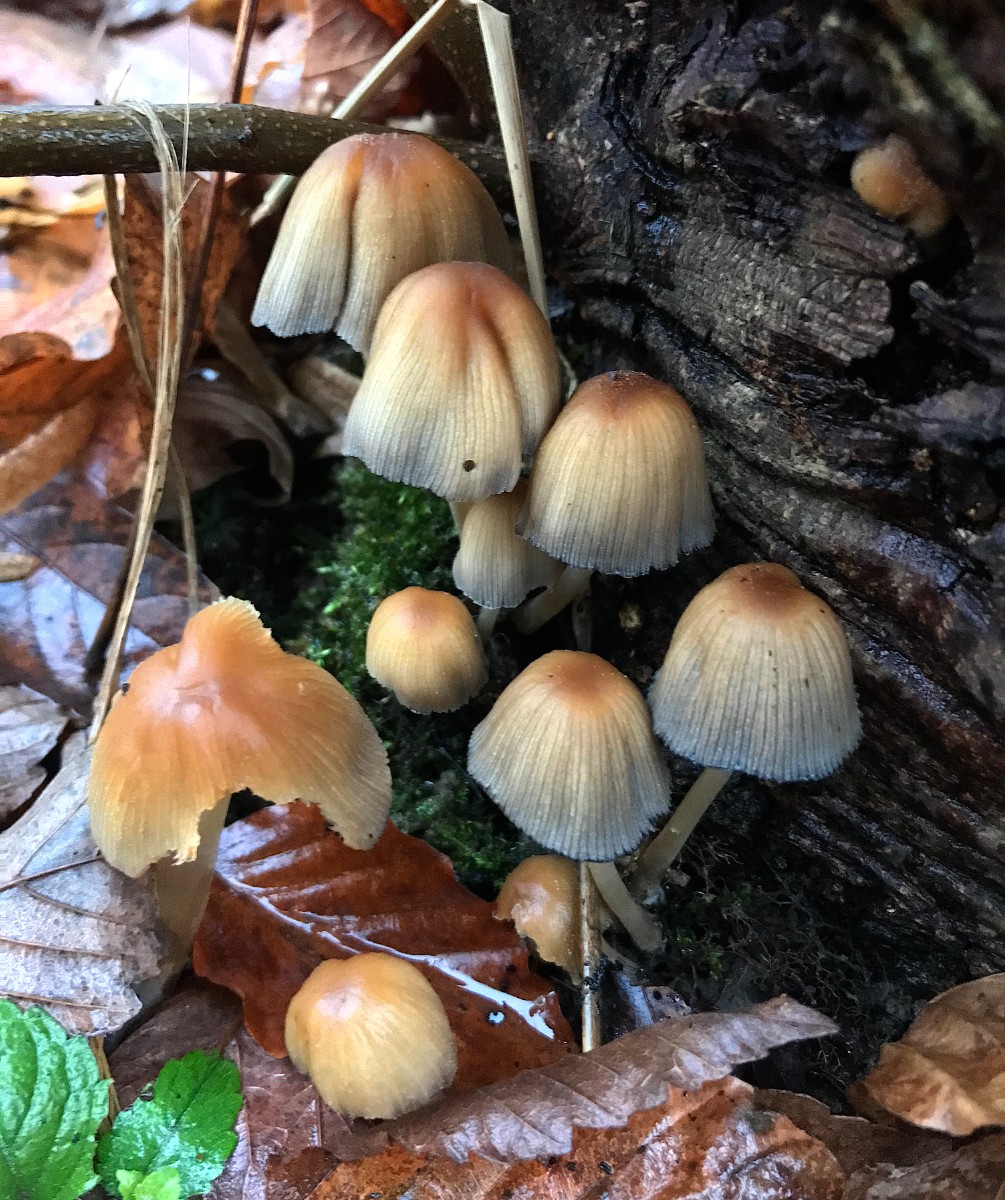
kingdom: Fungi
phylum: Basidiomycota
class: Agaricomycetes
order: Agaricales
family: Psathyrellaceae
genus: Coprinellus
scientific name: Coprinellus micaceus
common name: glimmer-blækhat
